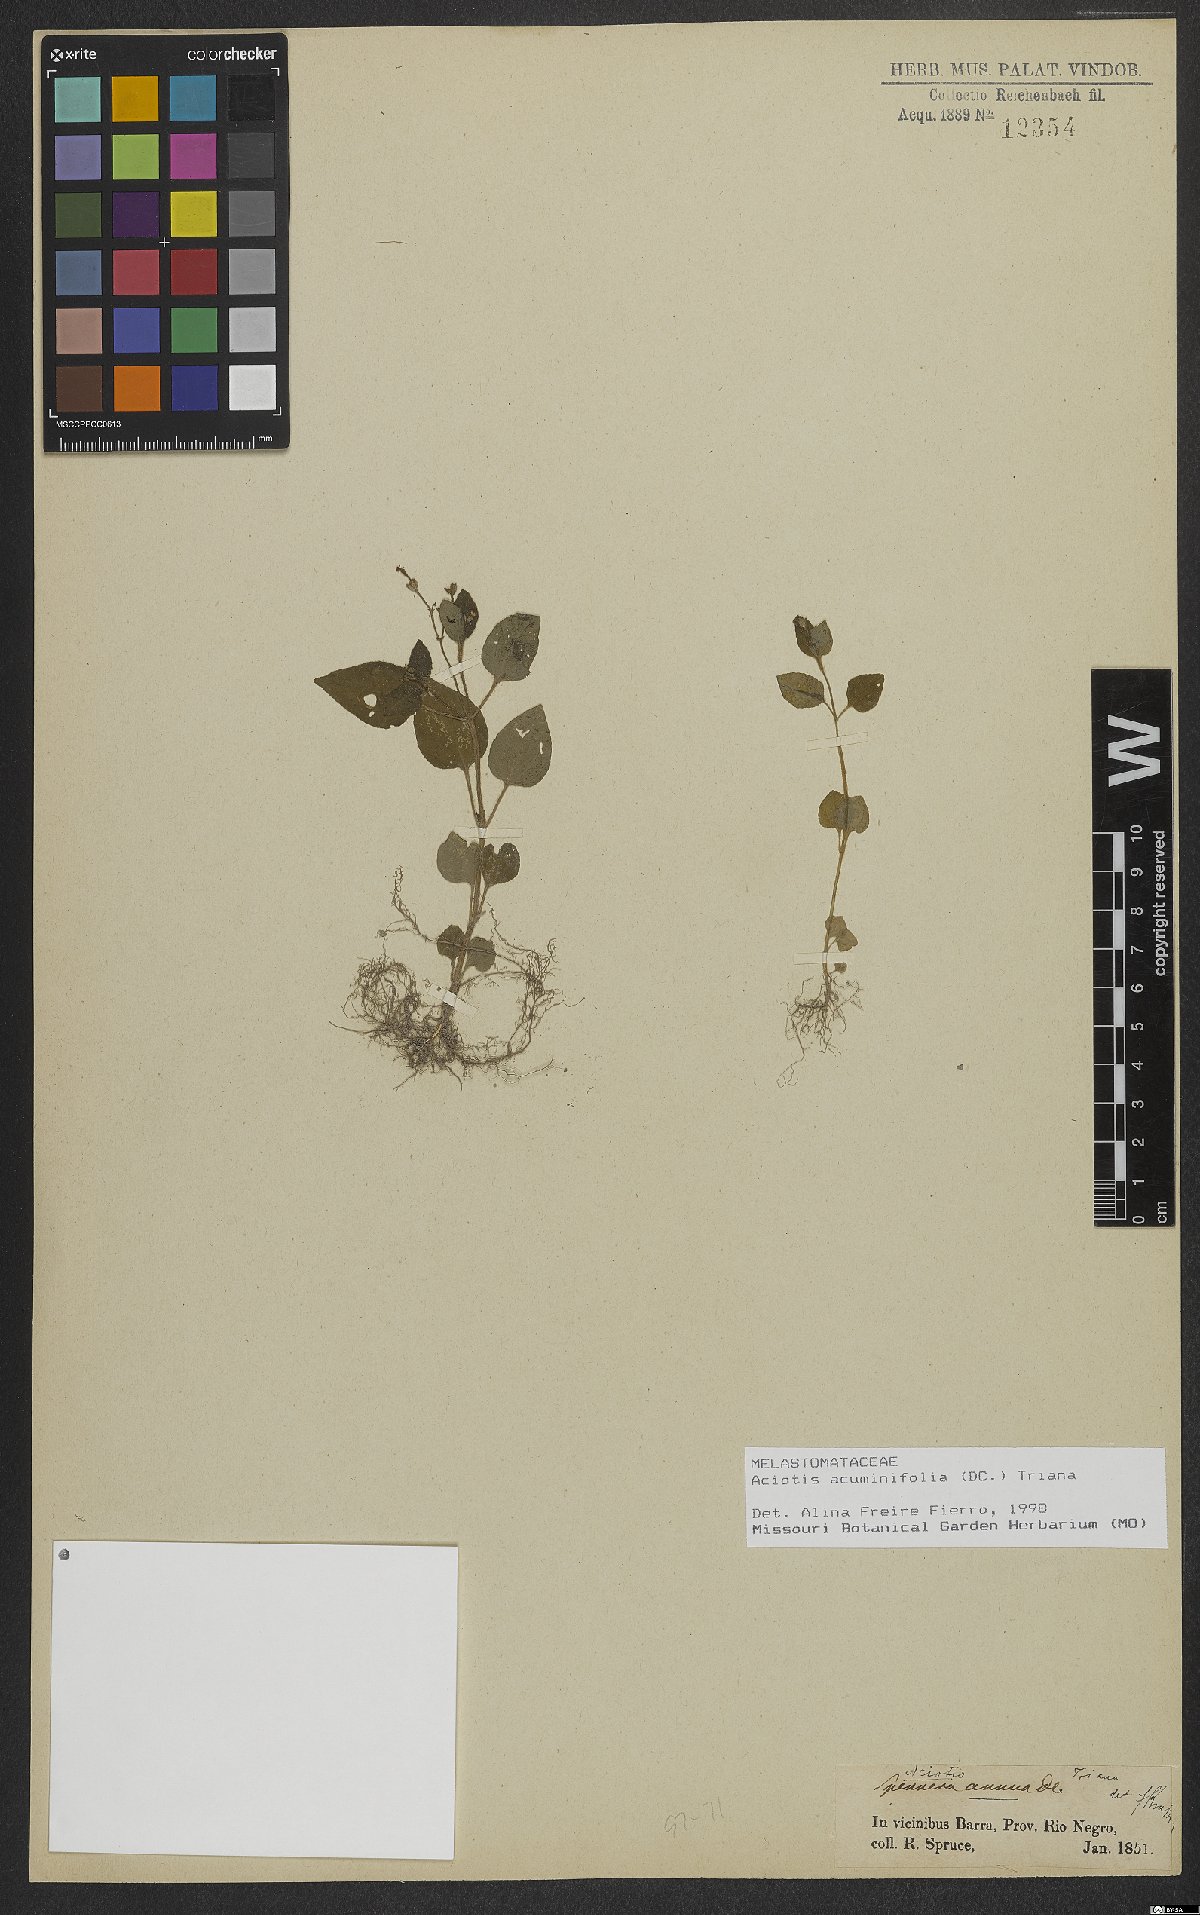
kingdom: Plantae
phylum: Tracheophyta
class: Magnoliopsida
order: Myrtales
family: Melastomataceae
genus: Aciotis
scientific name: Aciotis acuminifolia
